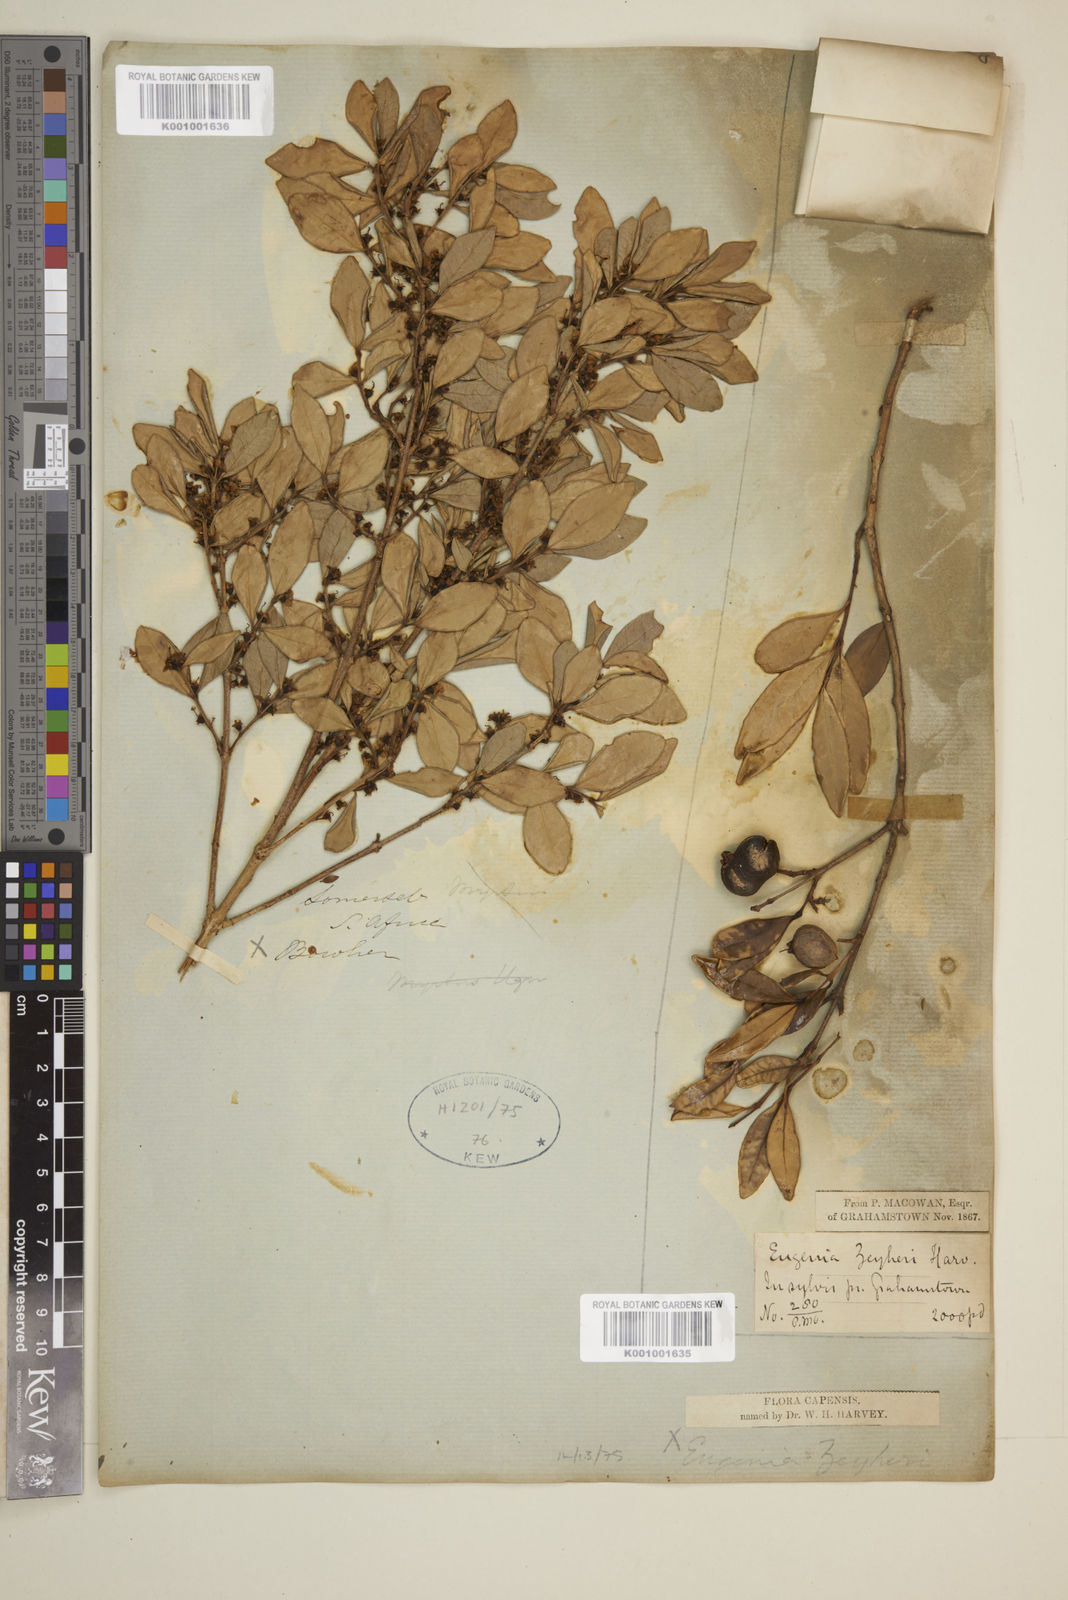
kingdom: Plantae
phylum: Tracheophyta
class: Magnoliopsida
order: Myrtales
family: Myrtaceae
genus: Eugenia
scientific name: Eugenia zeyheri
